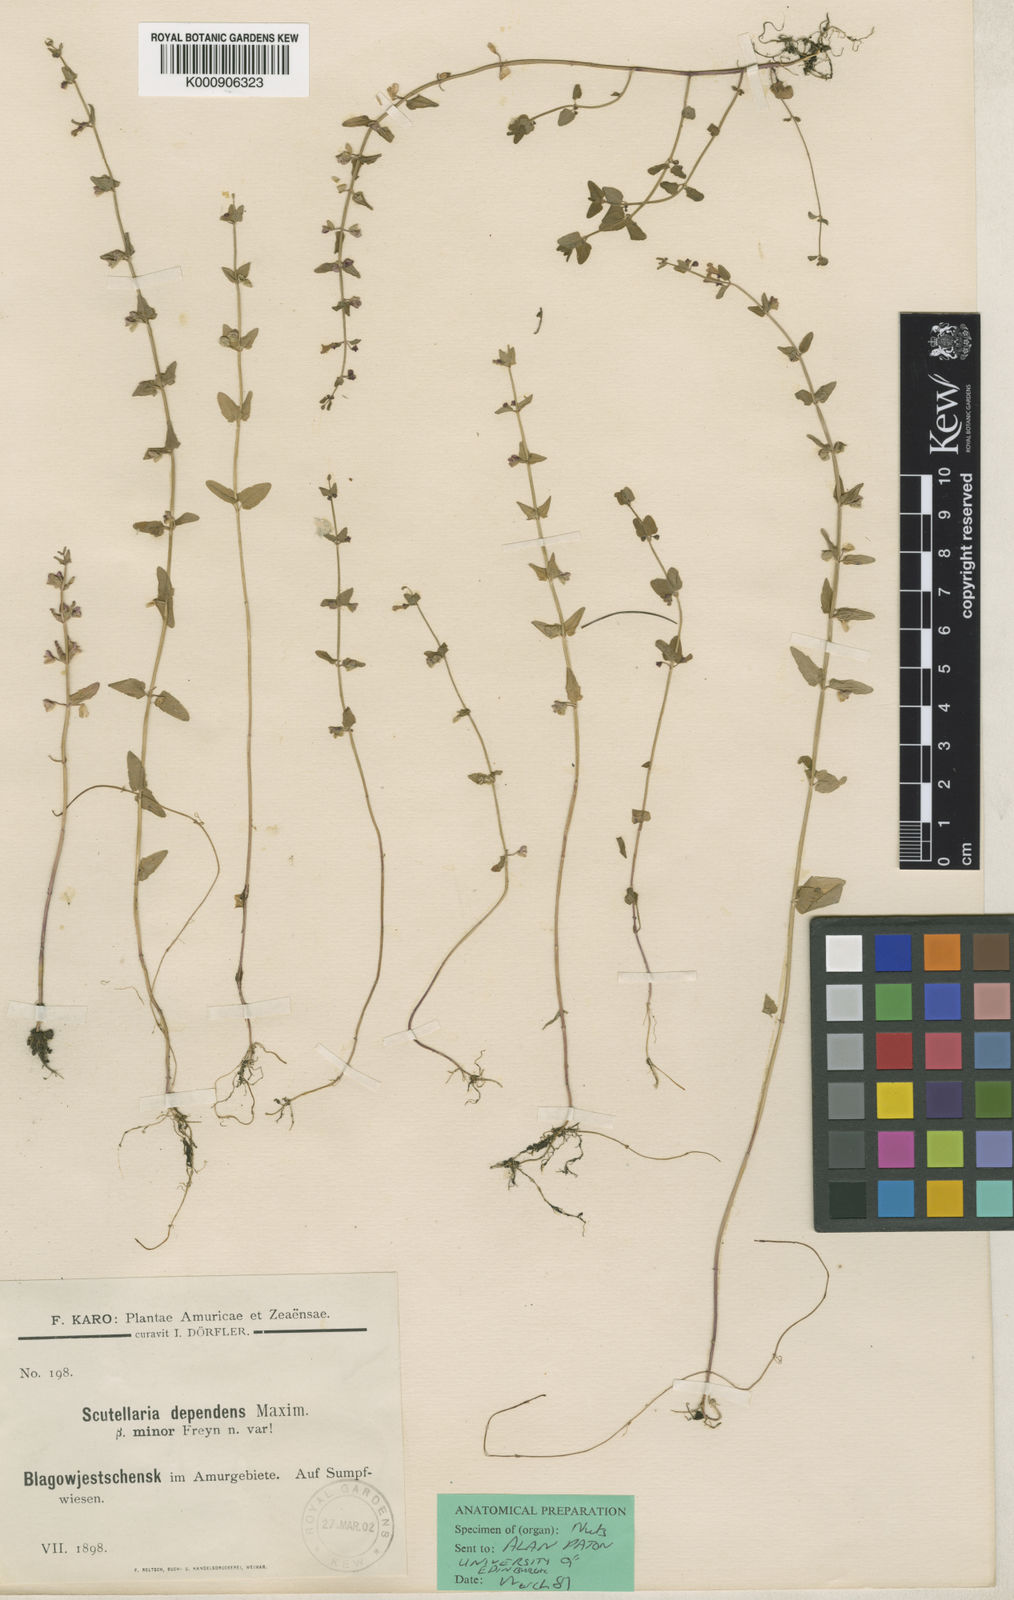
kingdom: Plantae
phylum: Tracheophyta
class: Magnoliopsida
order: Lamiales
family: Lamiaceae
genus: Scutellaria
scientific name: Scutellaria dependens
